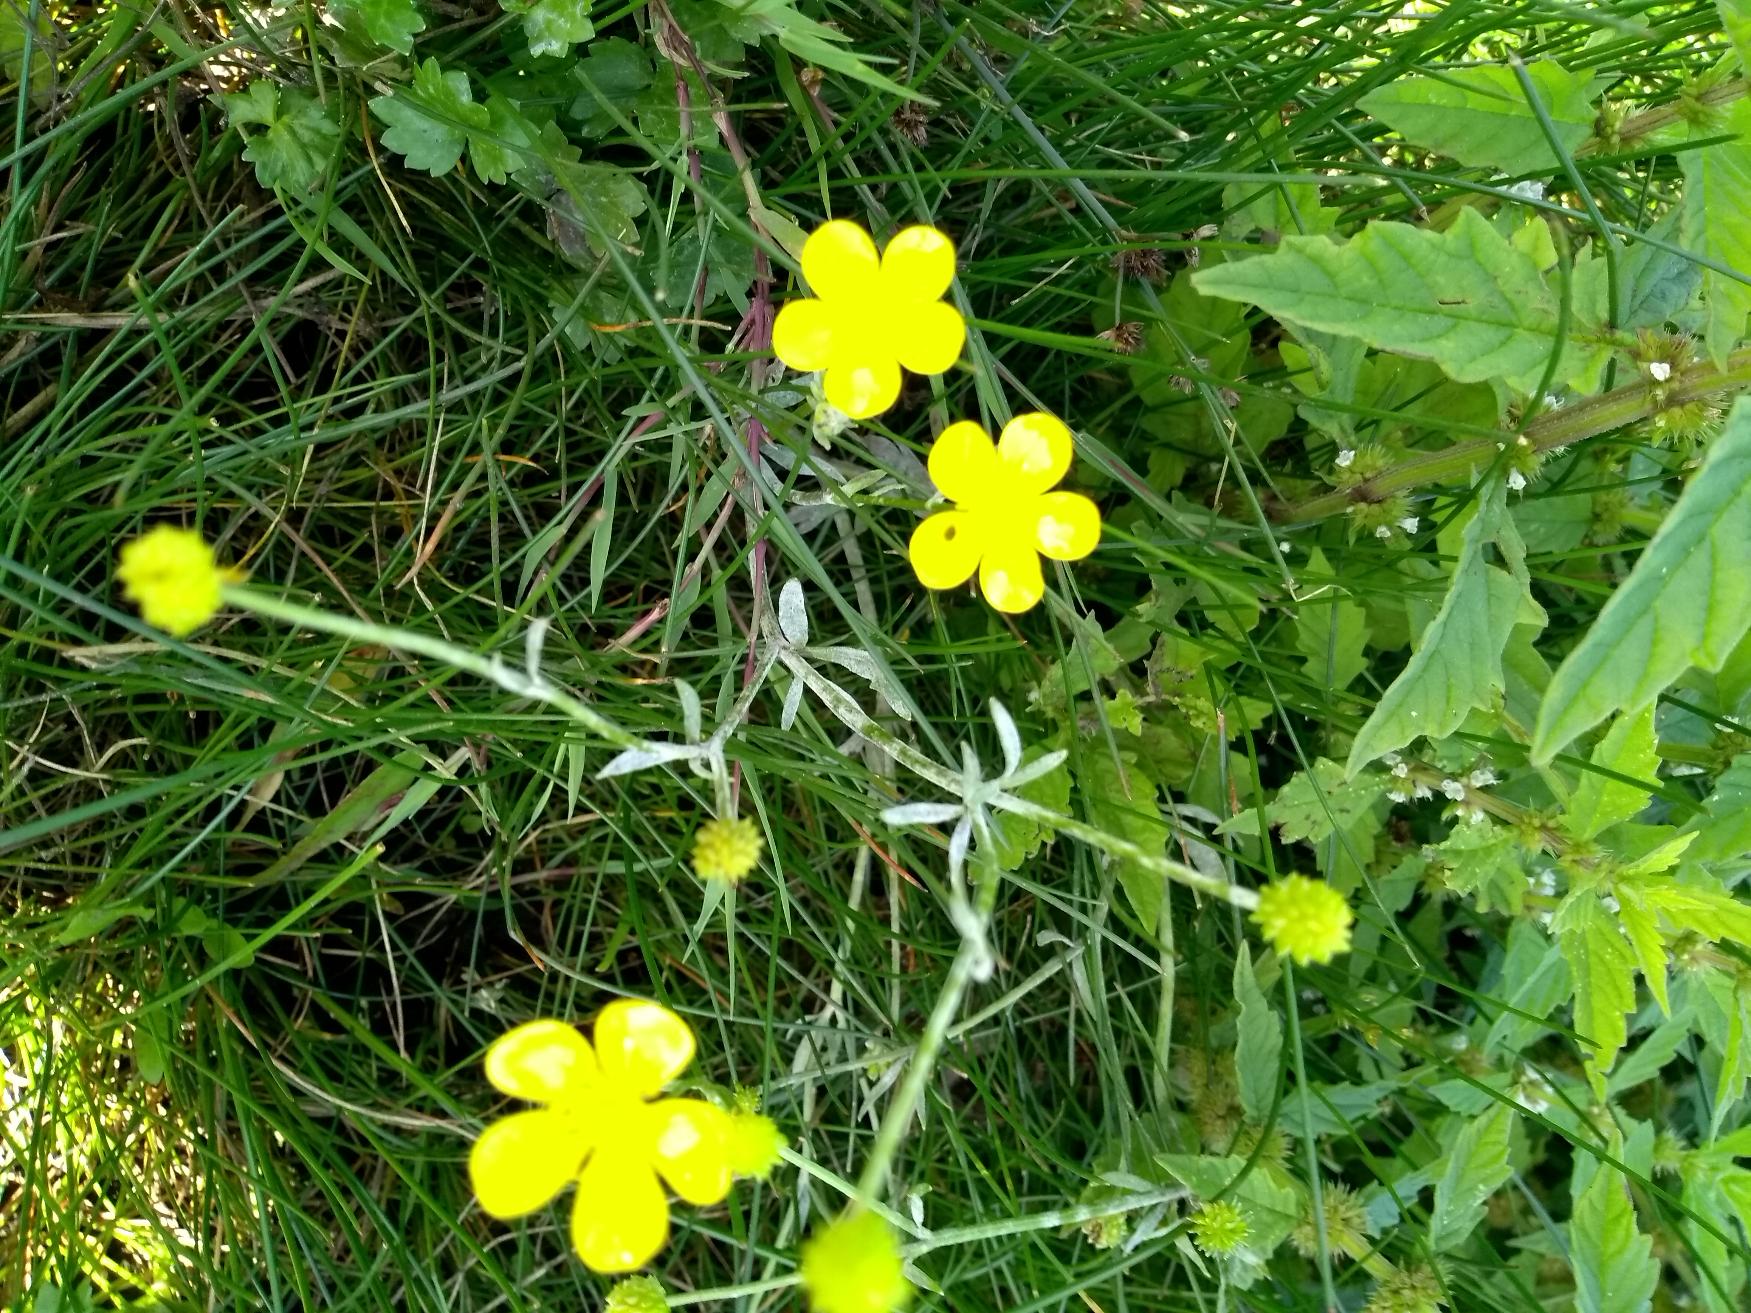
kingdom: Plantae
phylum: Tracheophyta
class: Magnoliopsida
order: Ranunculales
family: Ranunculaceae
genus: Ranunculus
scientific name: Ranunculus
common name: Ranunkelslægten
